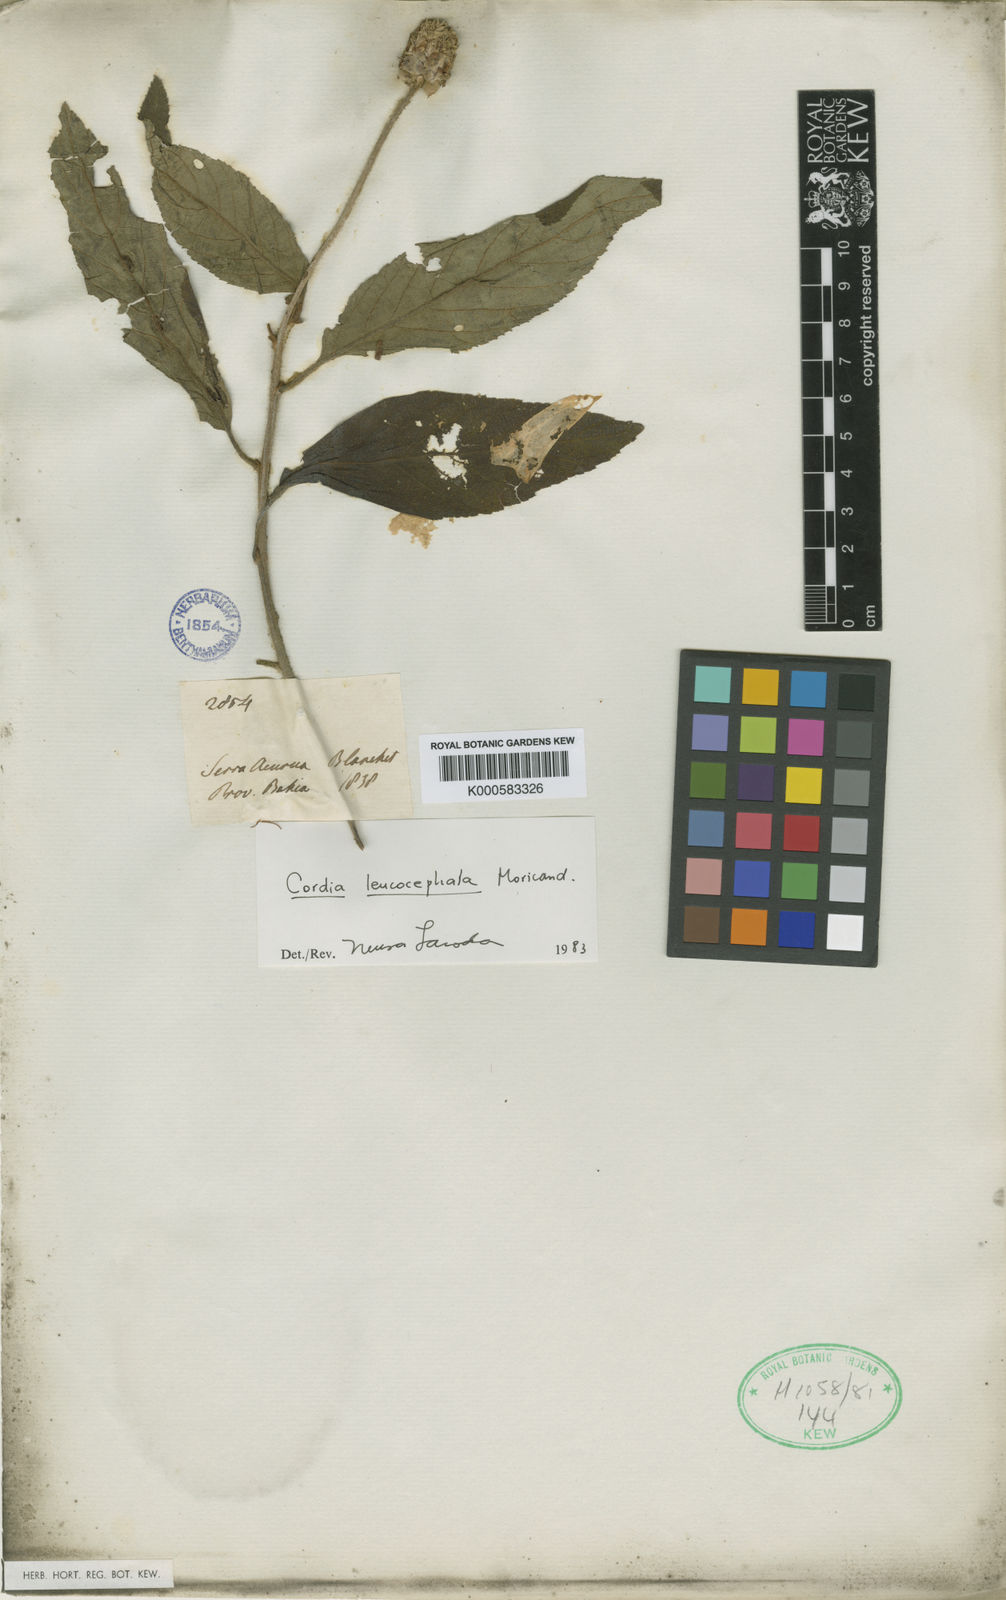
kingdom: Plantae
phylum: Tracheophyta
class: Magnoliopsida
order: Boraginales
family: Cordiaceae
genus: Varronia
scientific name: Varronia leucocephala
